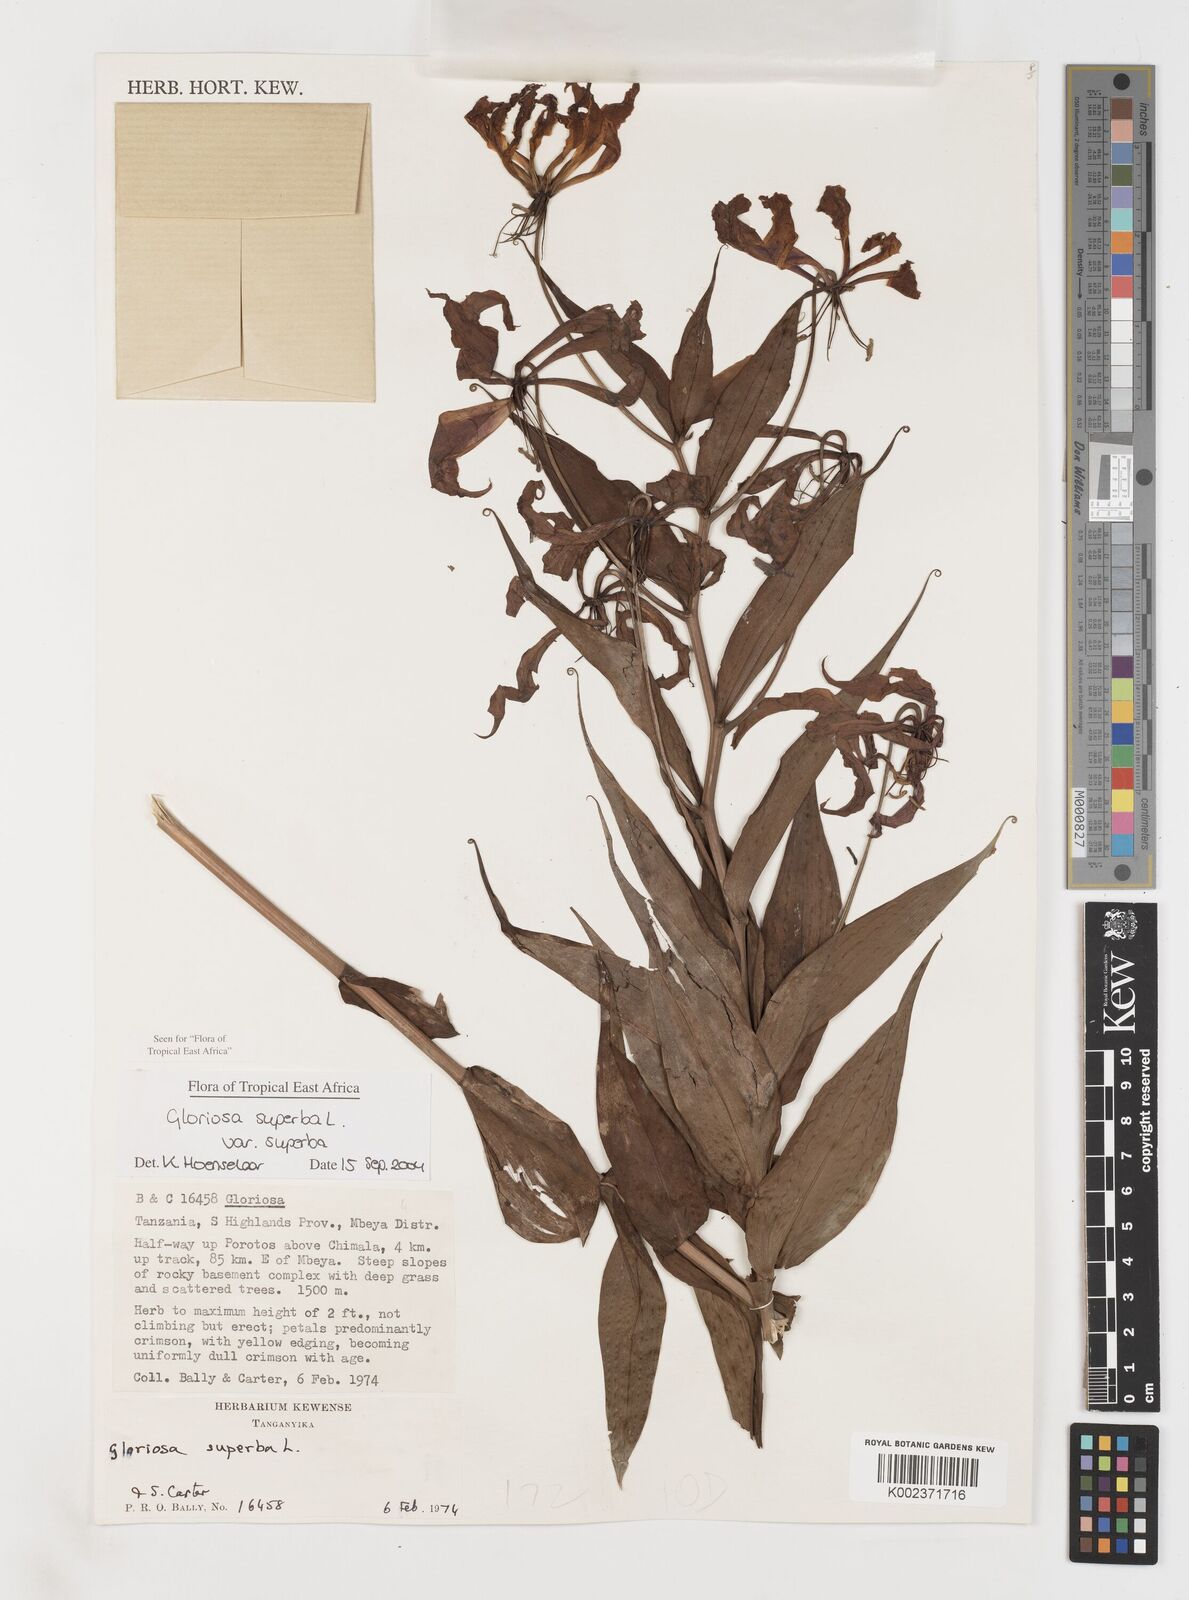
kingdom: Plantae
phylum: Tracheophyta
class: Liliopsida
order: Liliales
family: Colchicaceae
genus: Gloriosa
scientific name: Gloriosa simplex
